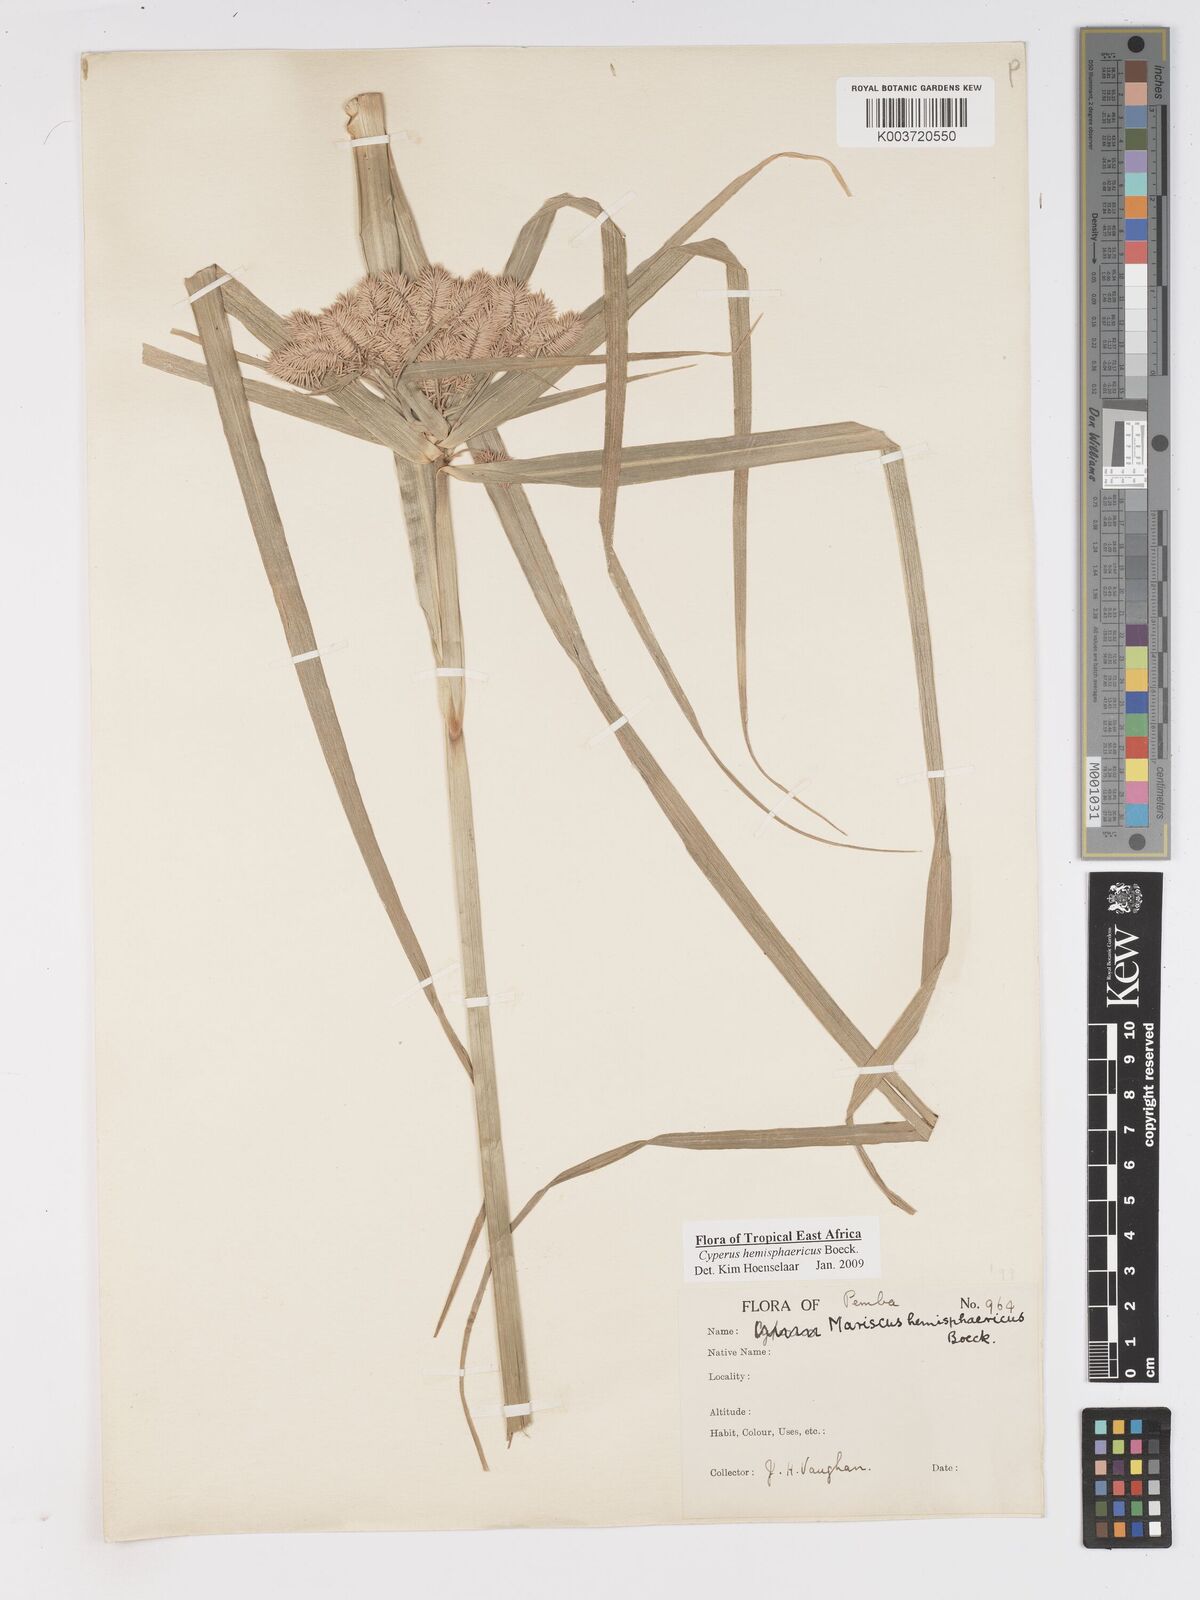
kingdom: Plantae
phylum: Tracheophyta
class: Liliopsida
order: Poales
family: Cyperaceae
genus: Cyperus
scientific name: Cyperus hemisphaericus
